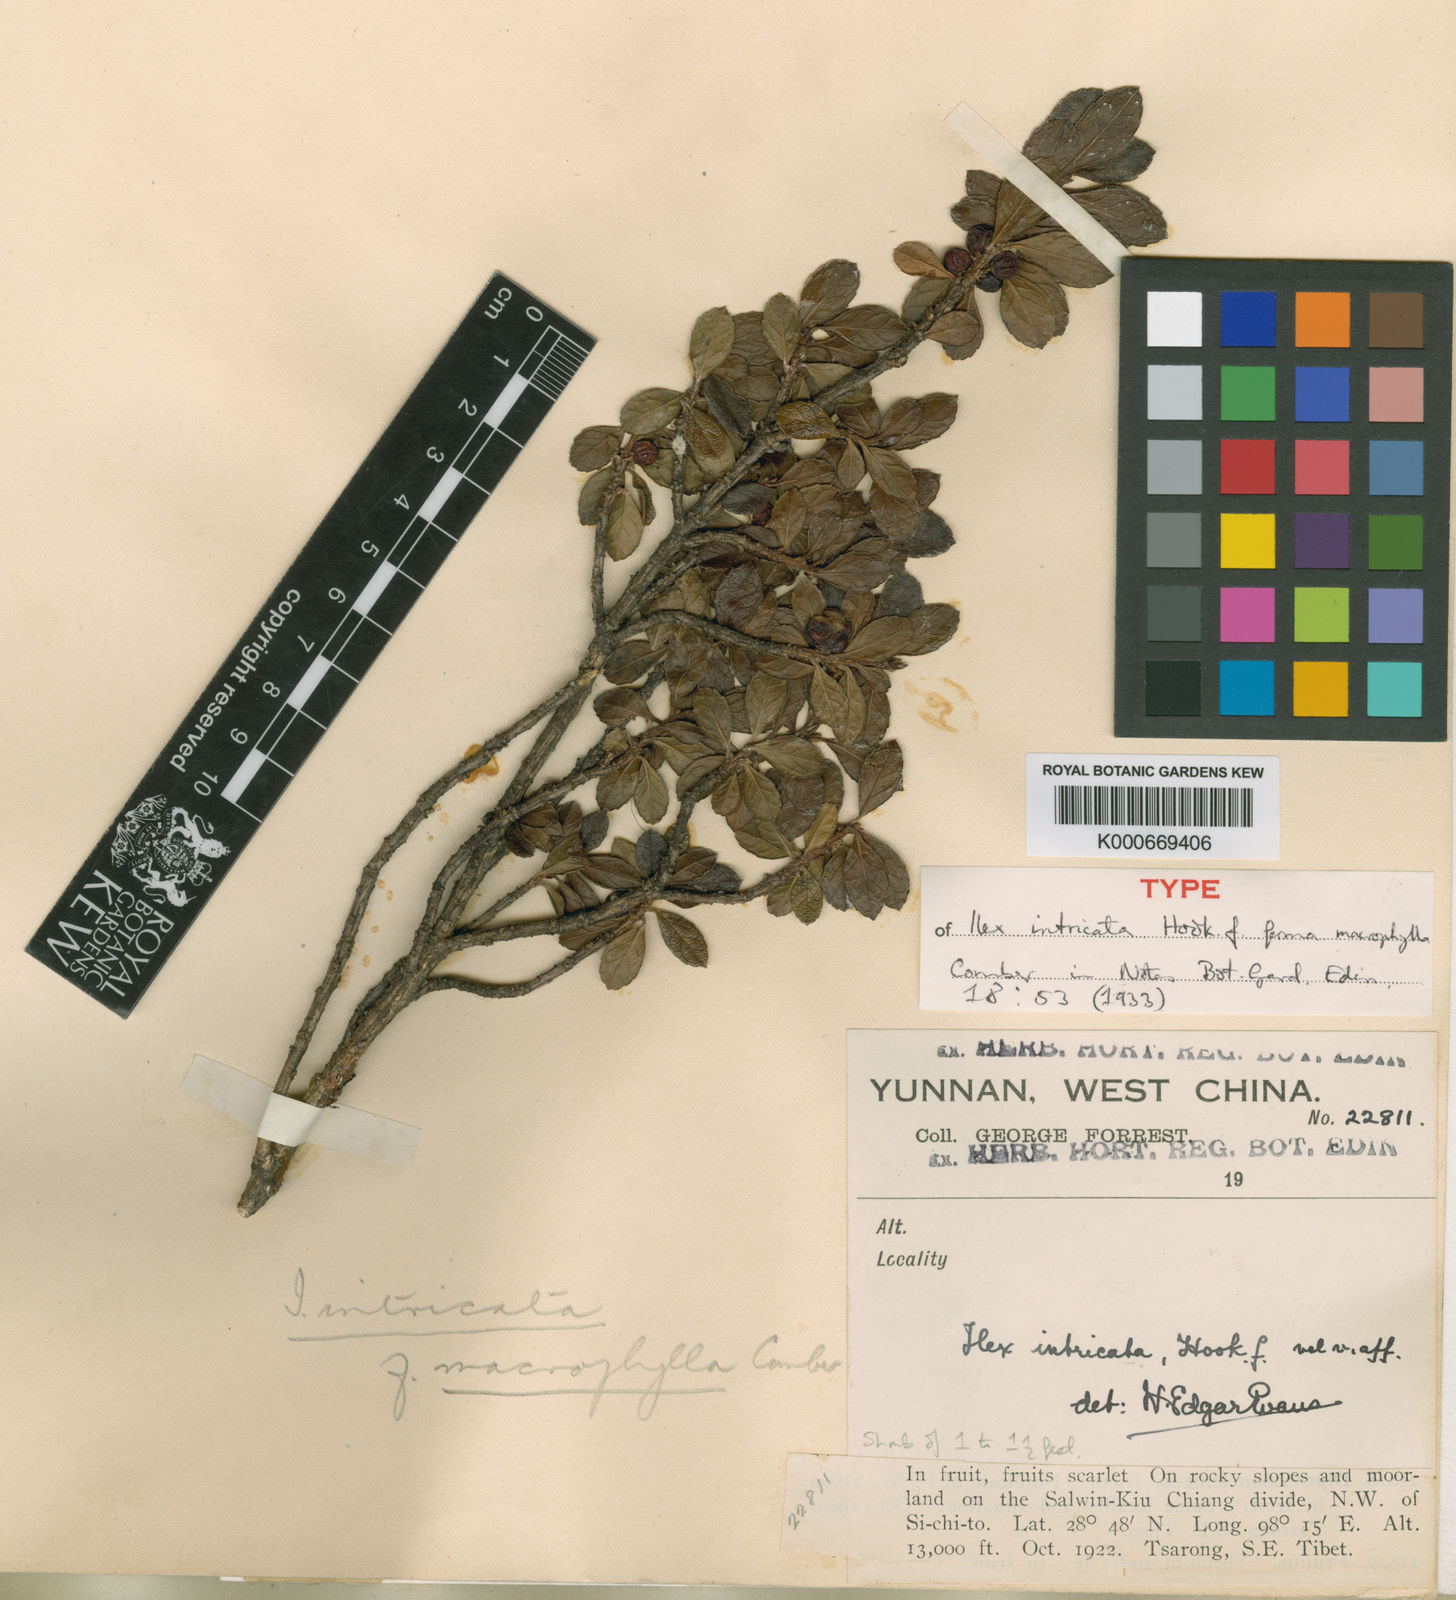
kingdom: Plantae
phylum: Tracheophyta
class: Magnoliopsida
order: Aquifoliales
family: Aquifoliaceae
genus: Ilex
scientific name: Ilex intricata
